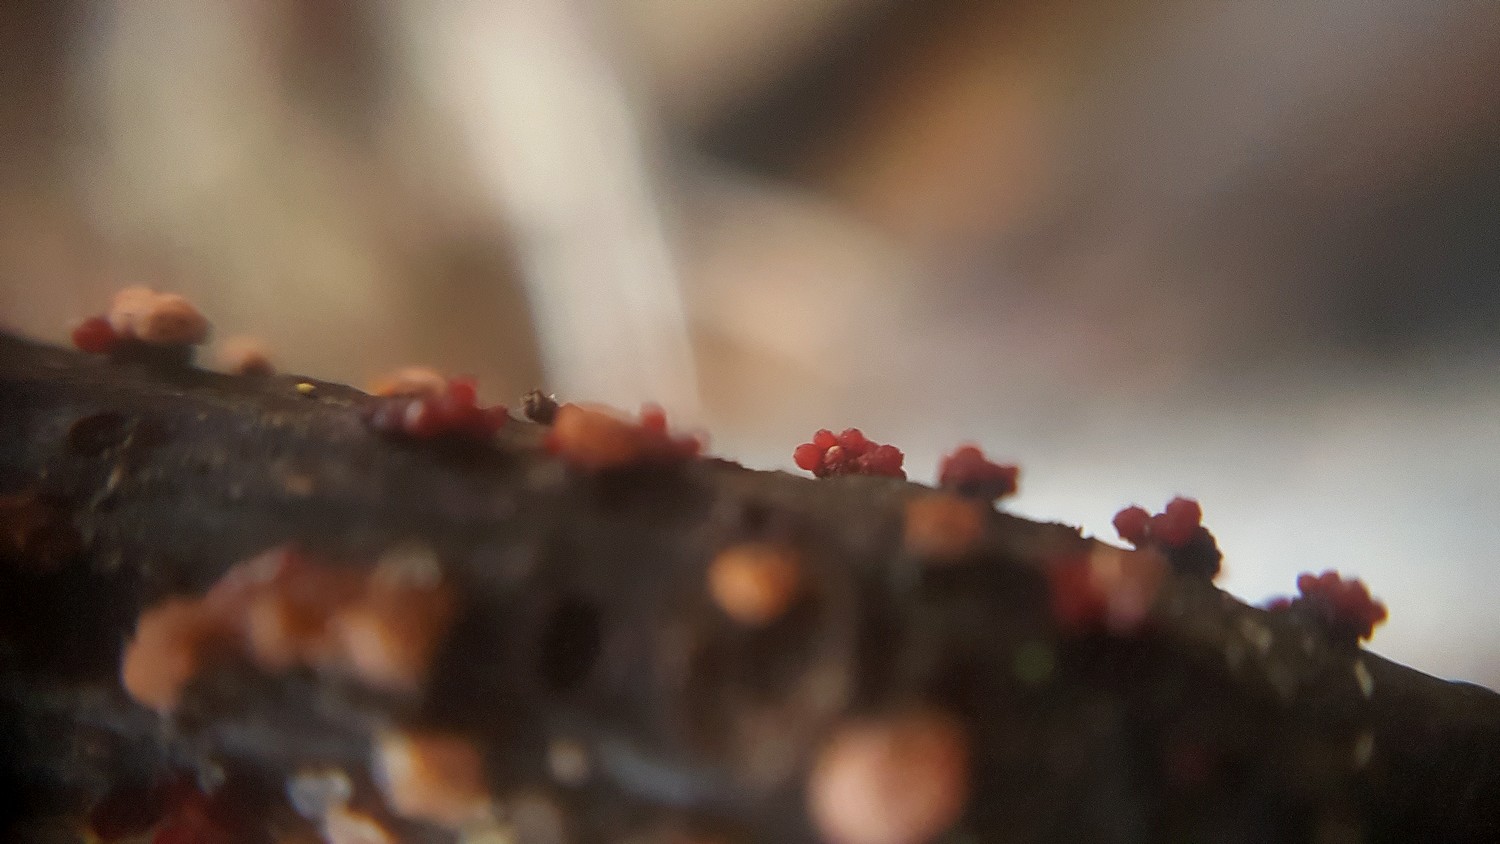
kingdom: Fungi
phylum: Ascomycota
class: Sordariomycetes
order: Hypocreales
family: Nectriaceae
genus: Nectria
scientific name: Nectria cinnabarina
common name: almindelig cinnobersvamp
